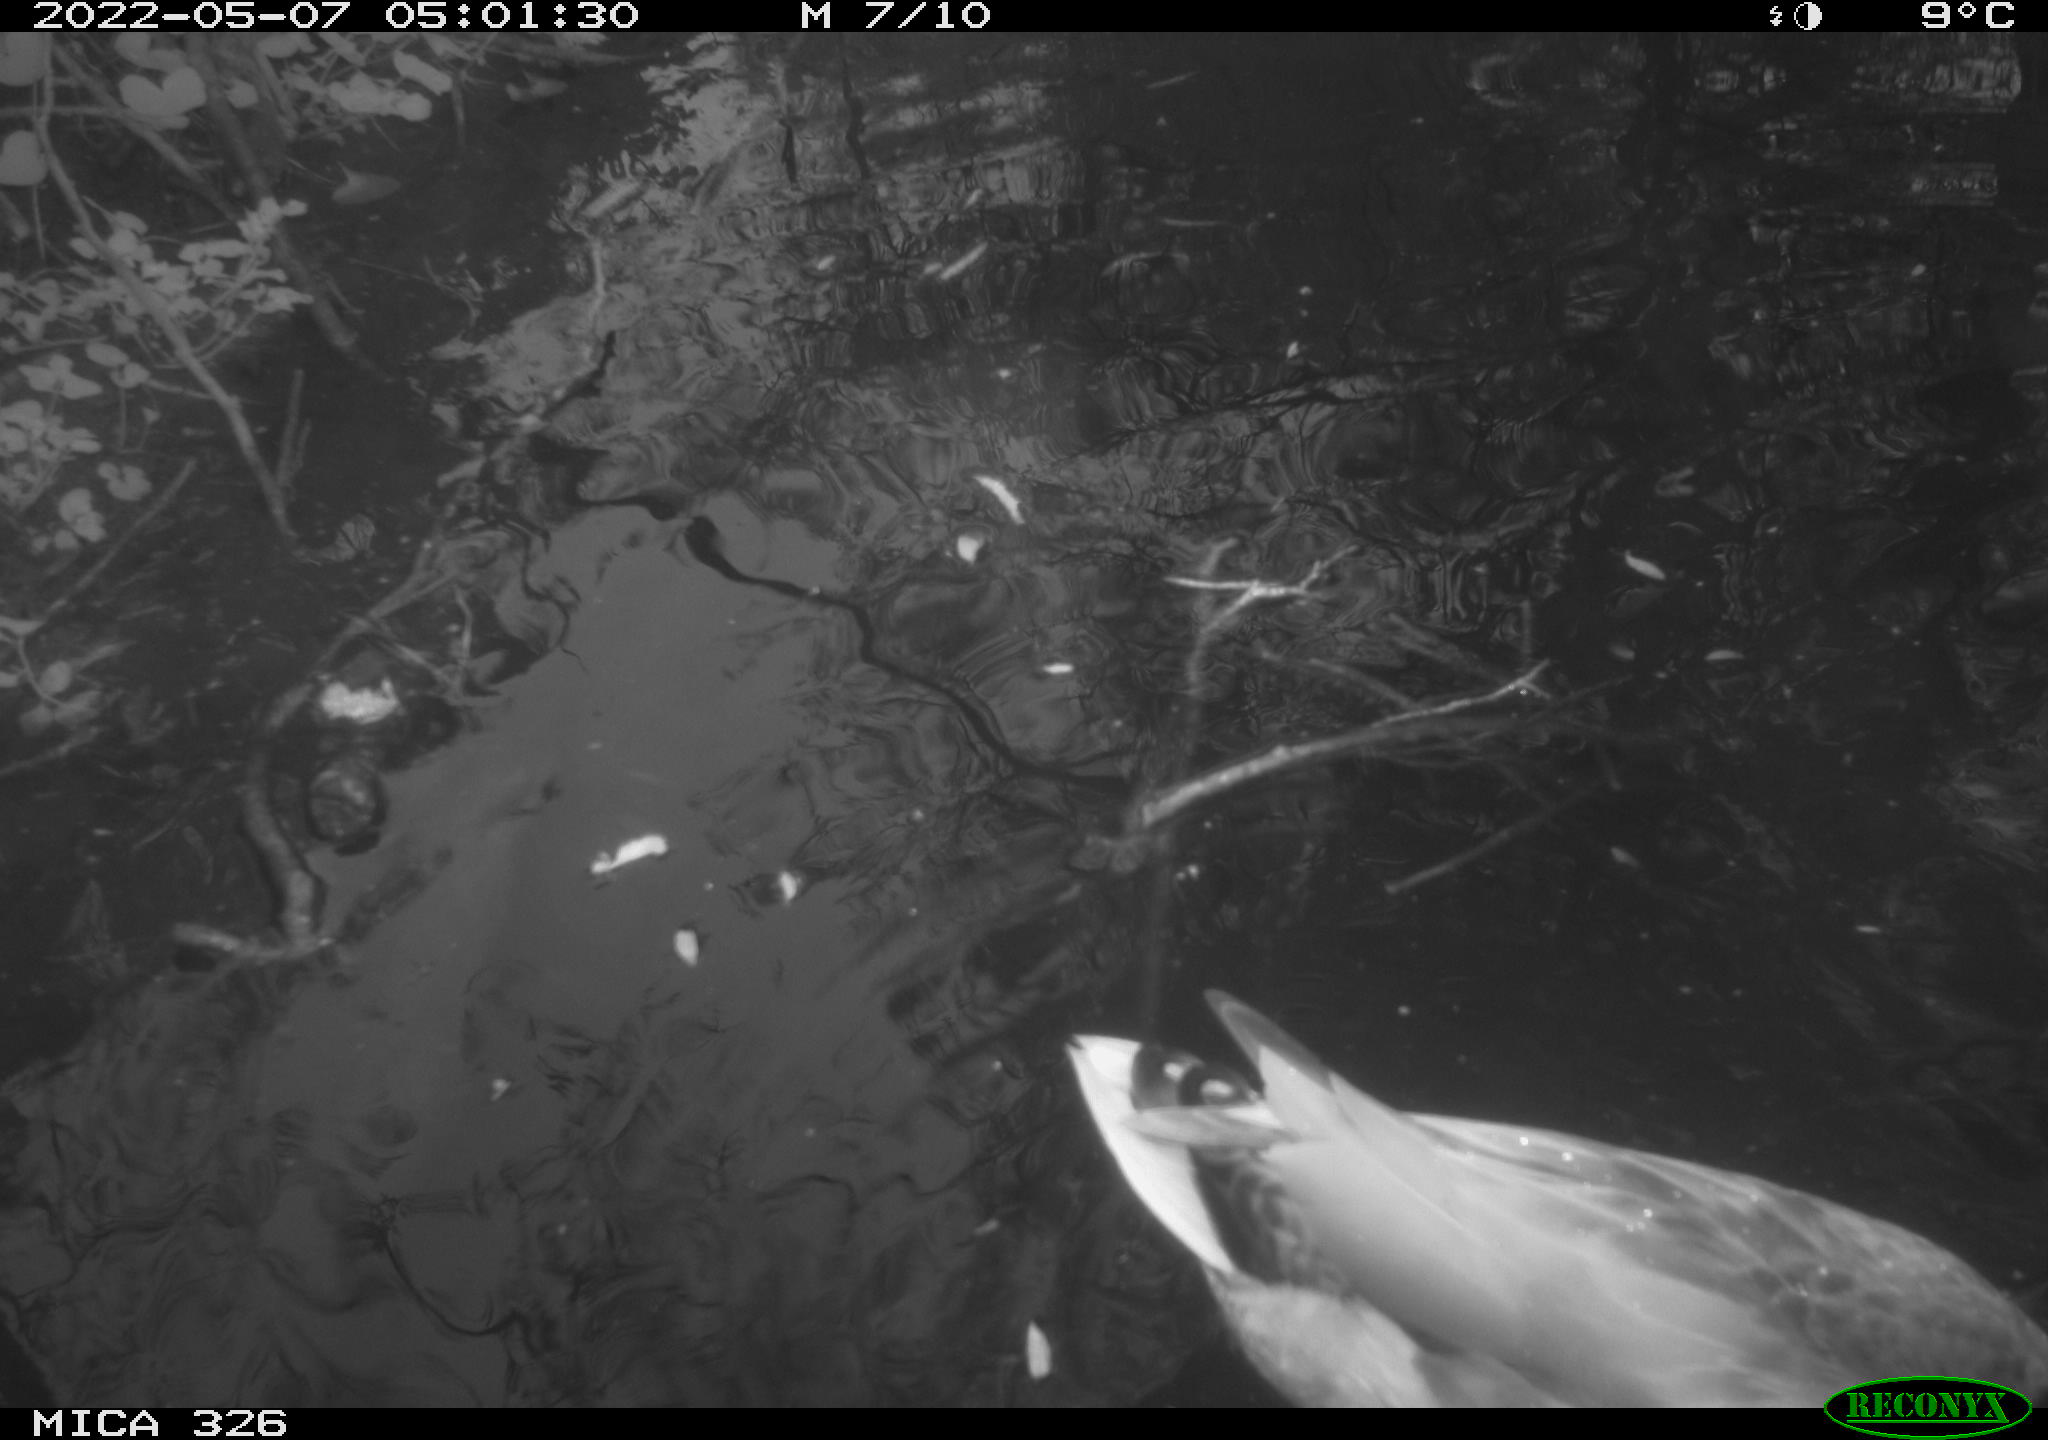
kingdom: Animalia
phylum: Chordata
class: Aves
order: Anseriformes
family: Anatidae
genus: Anas
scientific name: Anas
